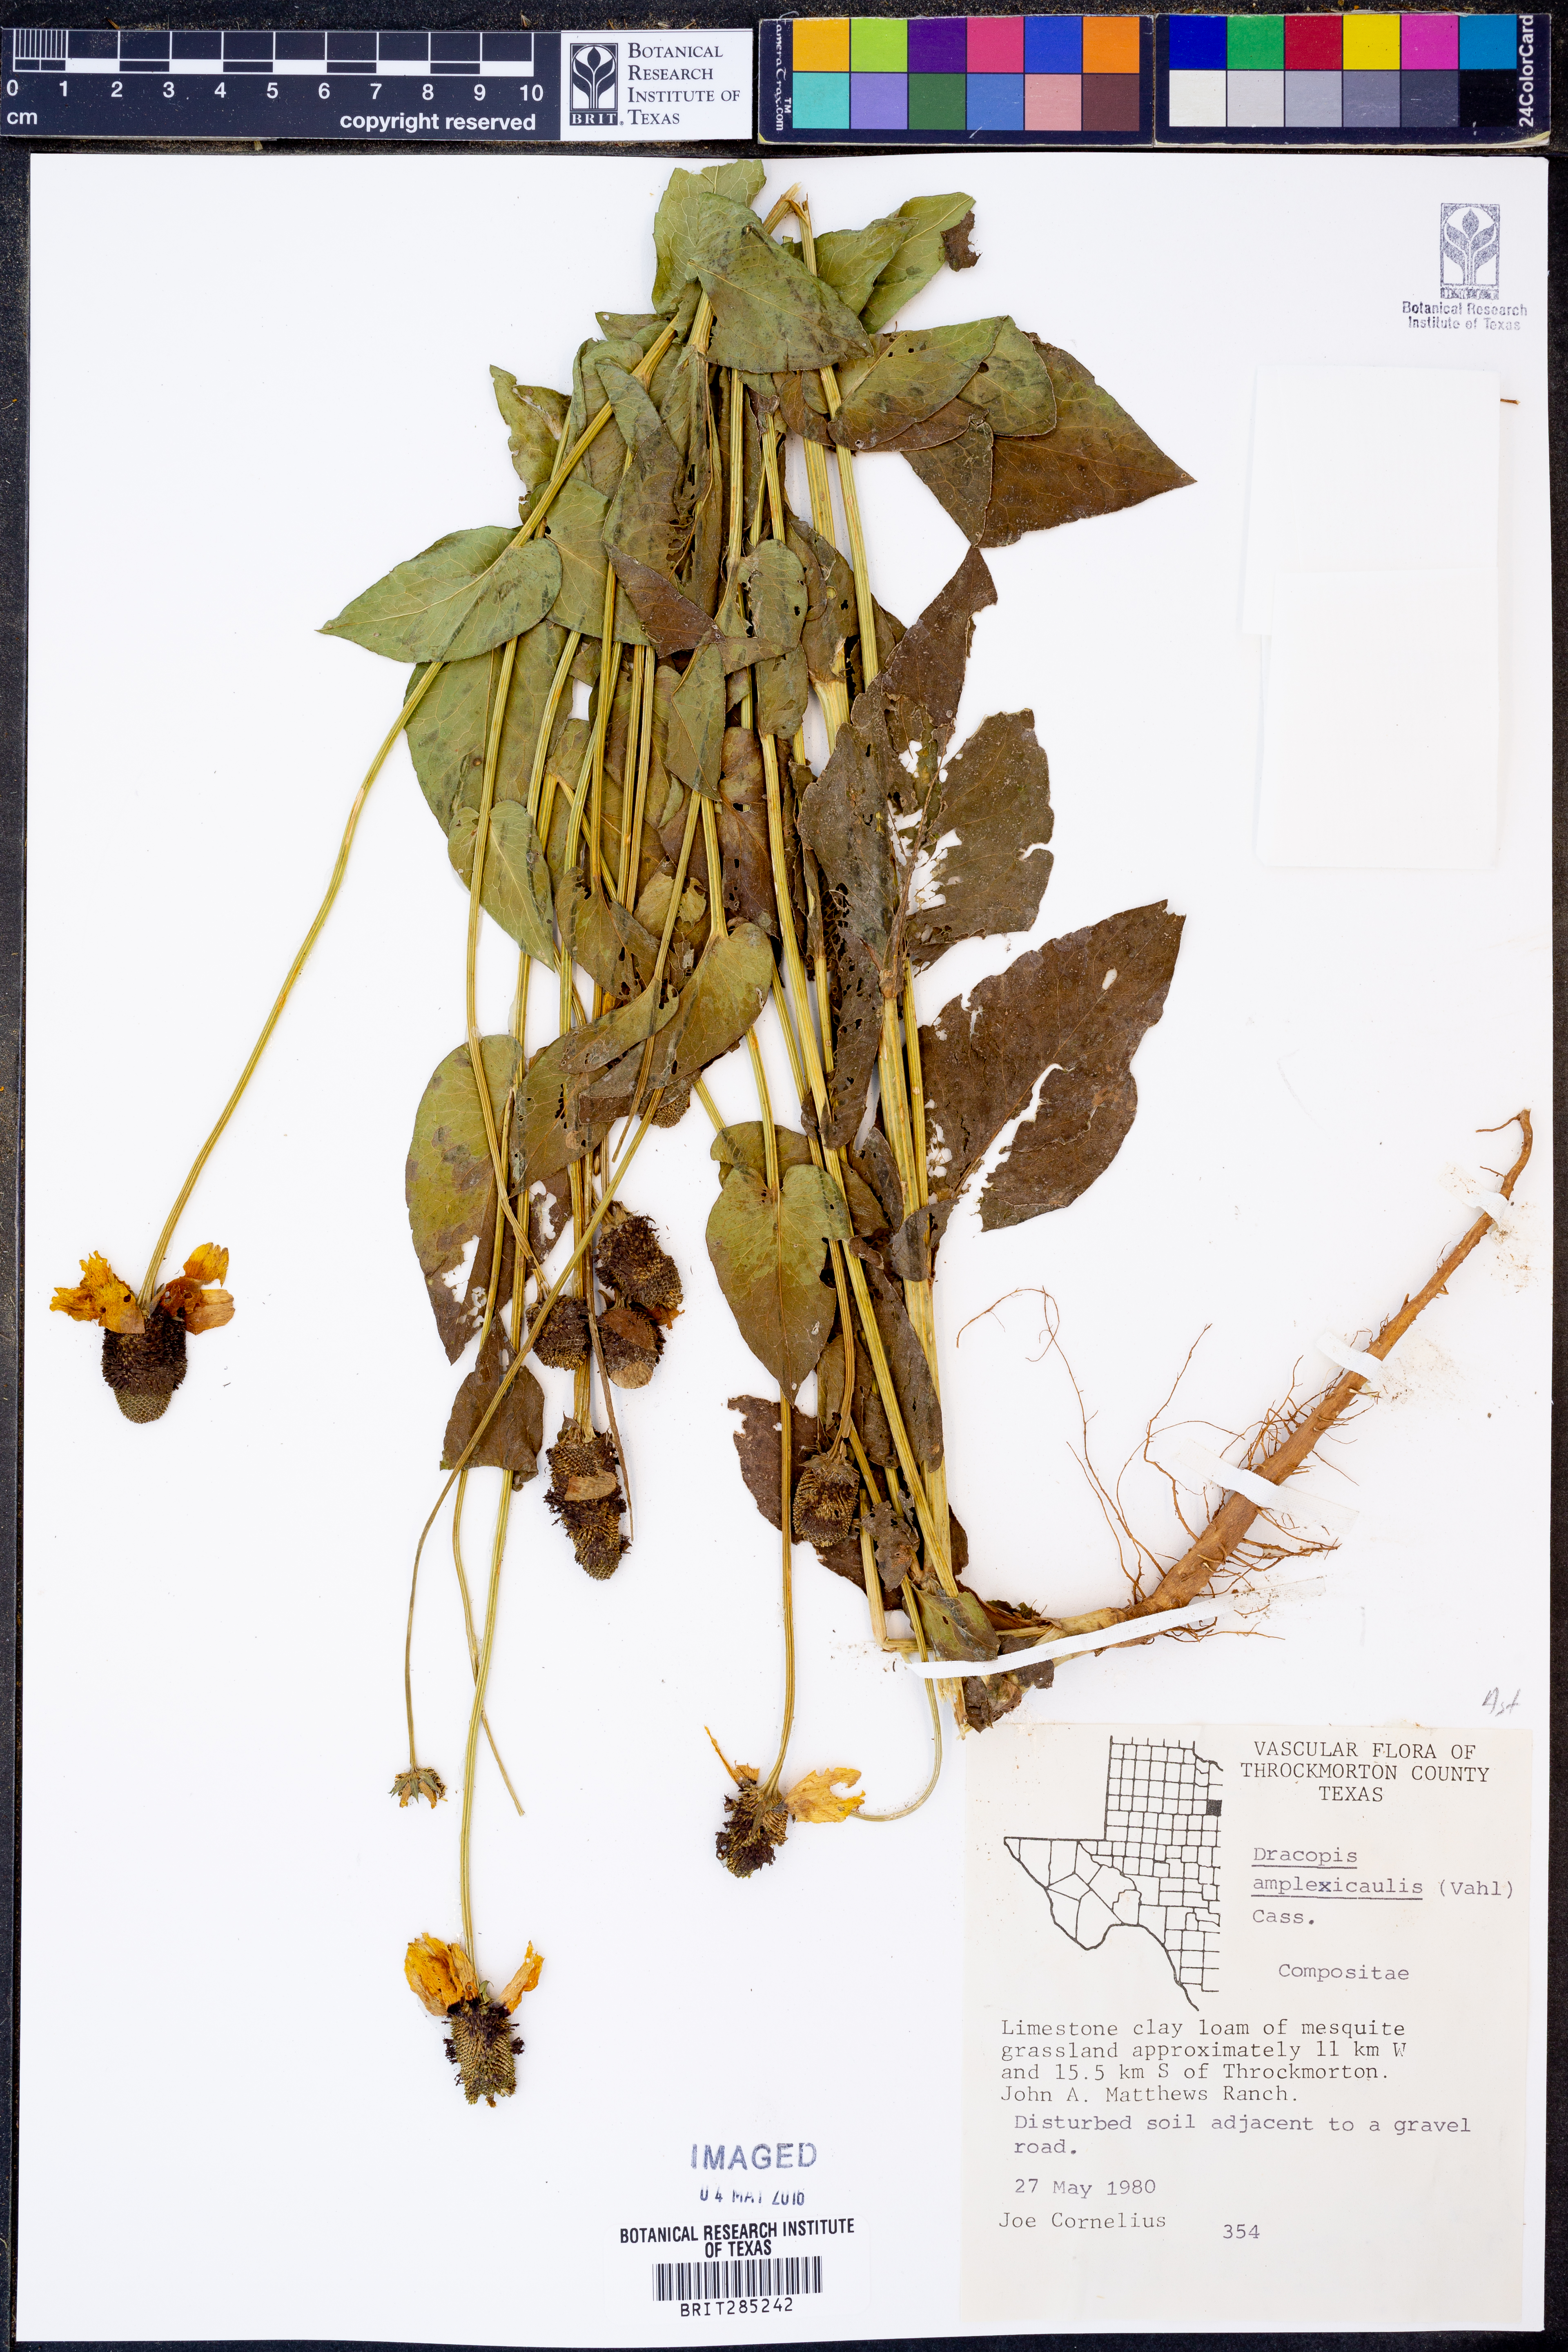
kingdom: Plantae
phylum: Tracheophyta
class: Magnoliopsida
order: Asterales
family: Asteraceae
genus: Rudbeckia
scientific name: Rudbeckia amplexicaulis
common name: Clasping-leaf coneflower
